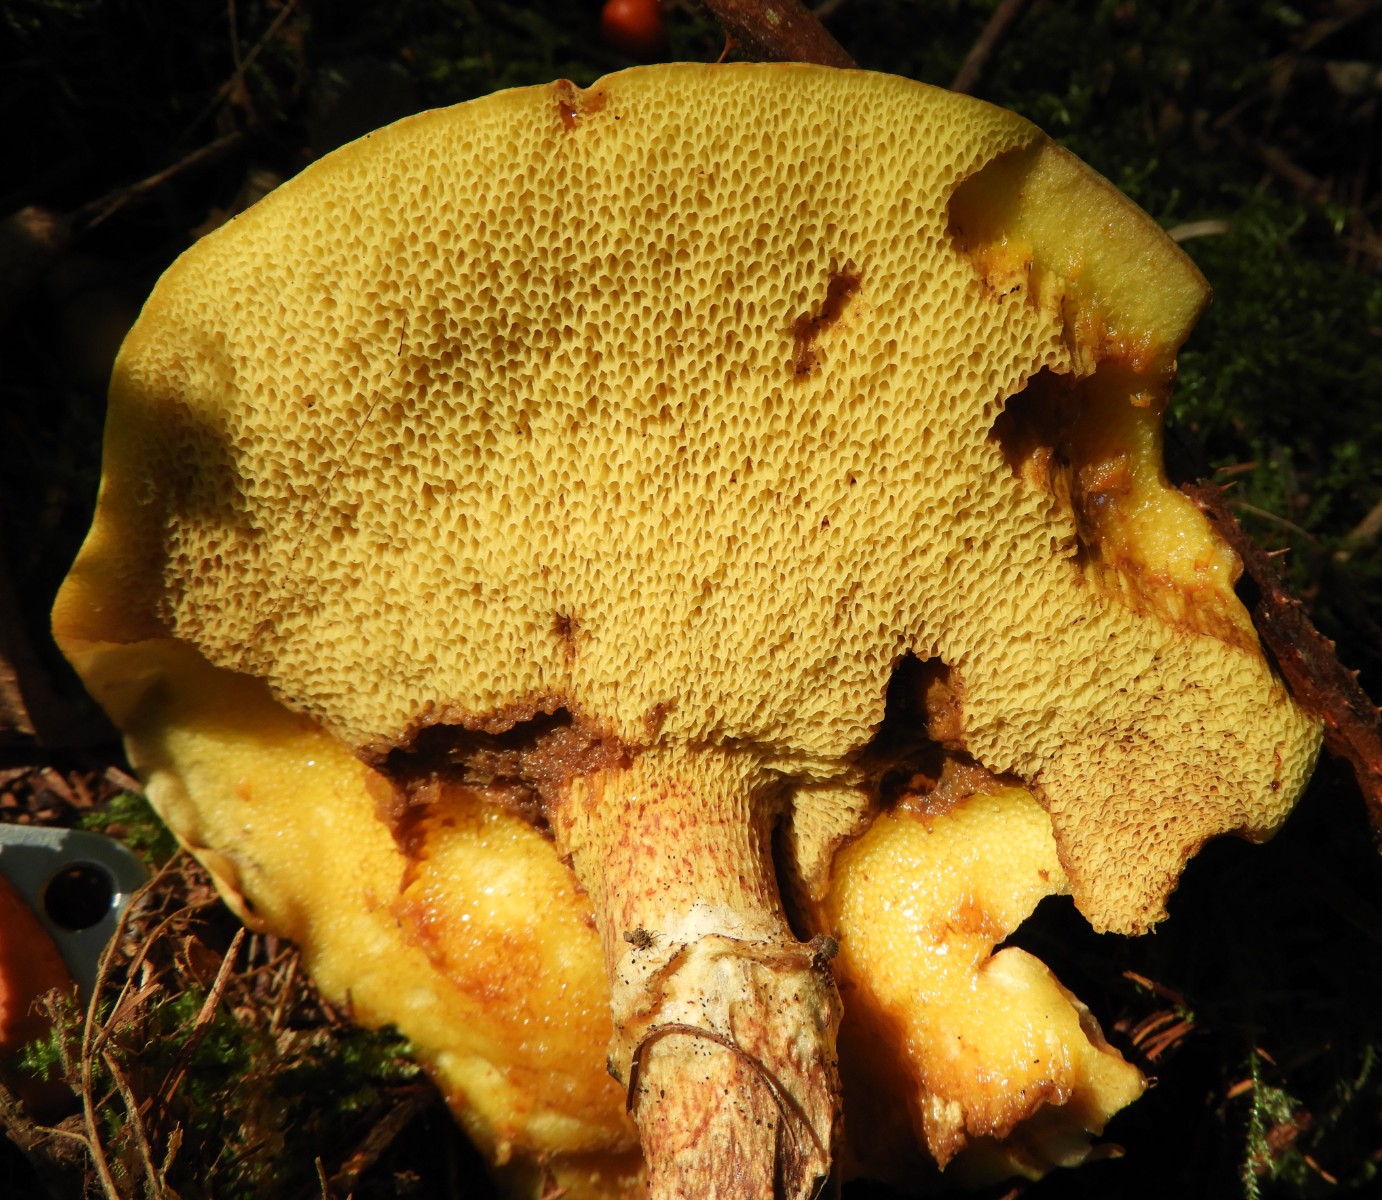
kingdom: Fungi
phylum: Basidiomycota
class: Agaricomycetes
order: Boletales
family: Suillaceae
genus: Suillus
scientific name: Suillus grevillei
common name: lærke-slimrørhat
